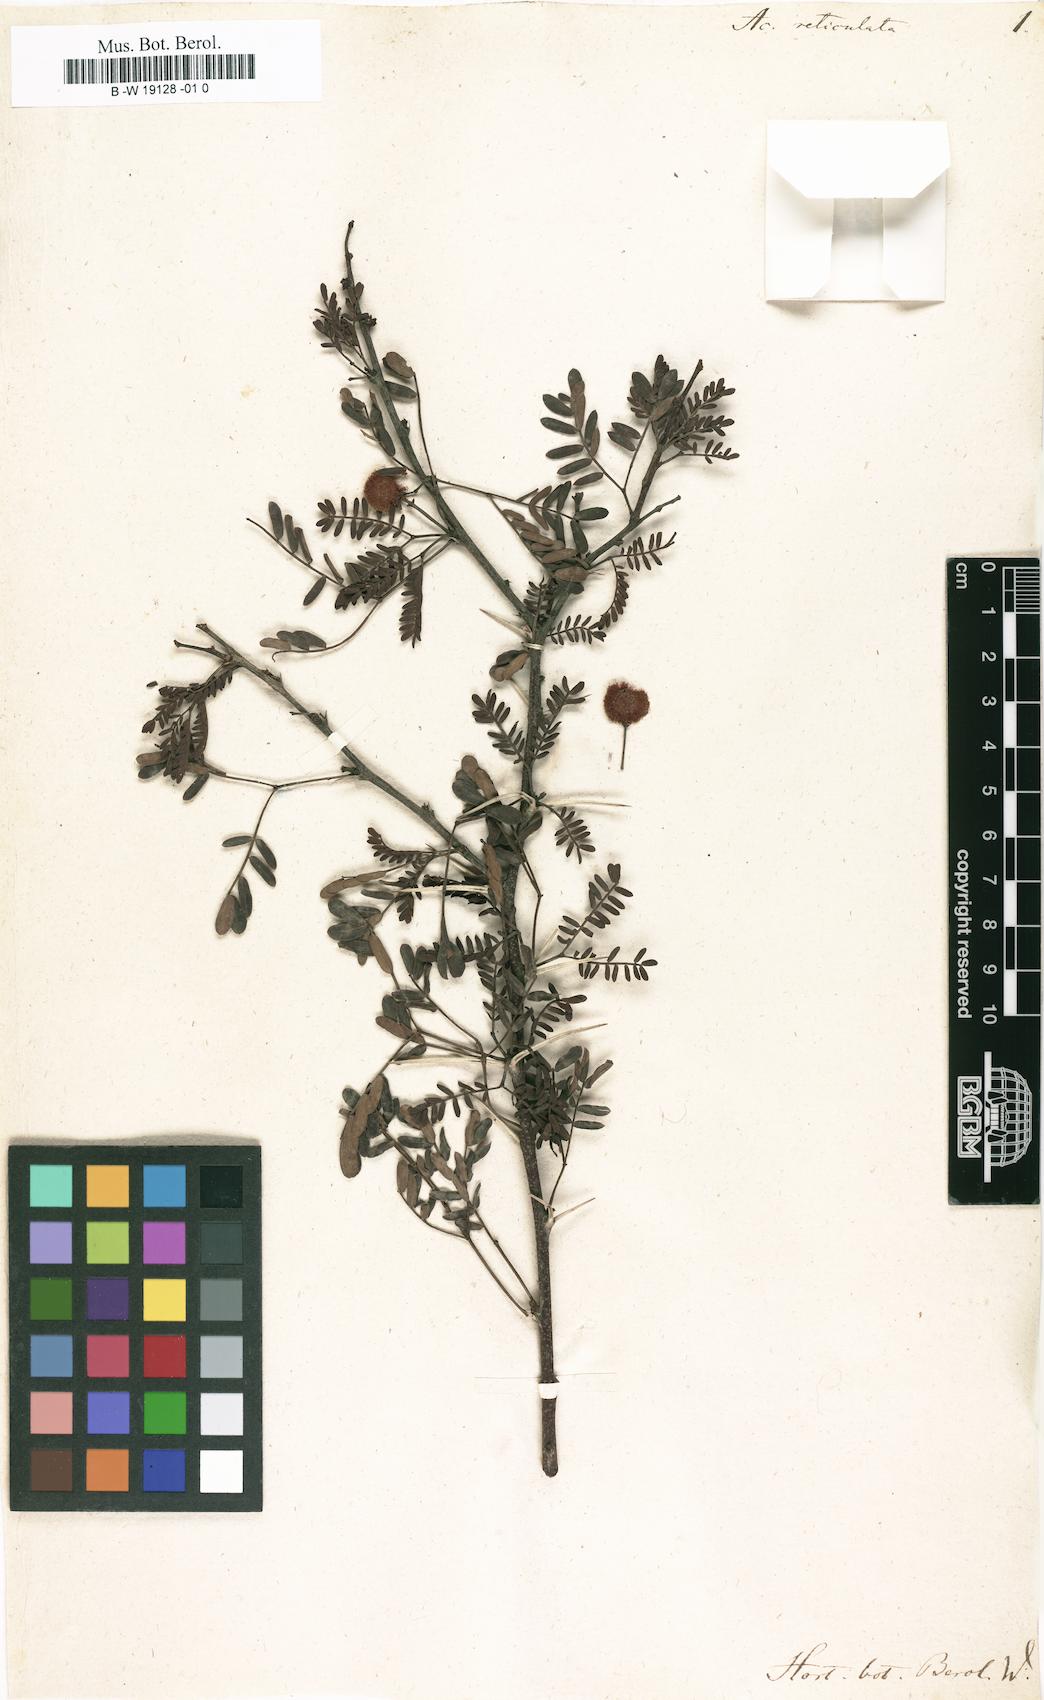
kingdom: Plantae
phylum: Tracheophyta
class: Magnoliopsida
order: Fabales
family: Fabaceae
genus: Vachellia
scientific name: Vachellia karroo
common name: Sweet thorn
